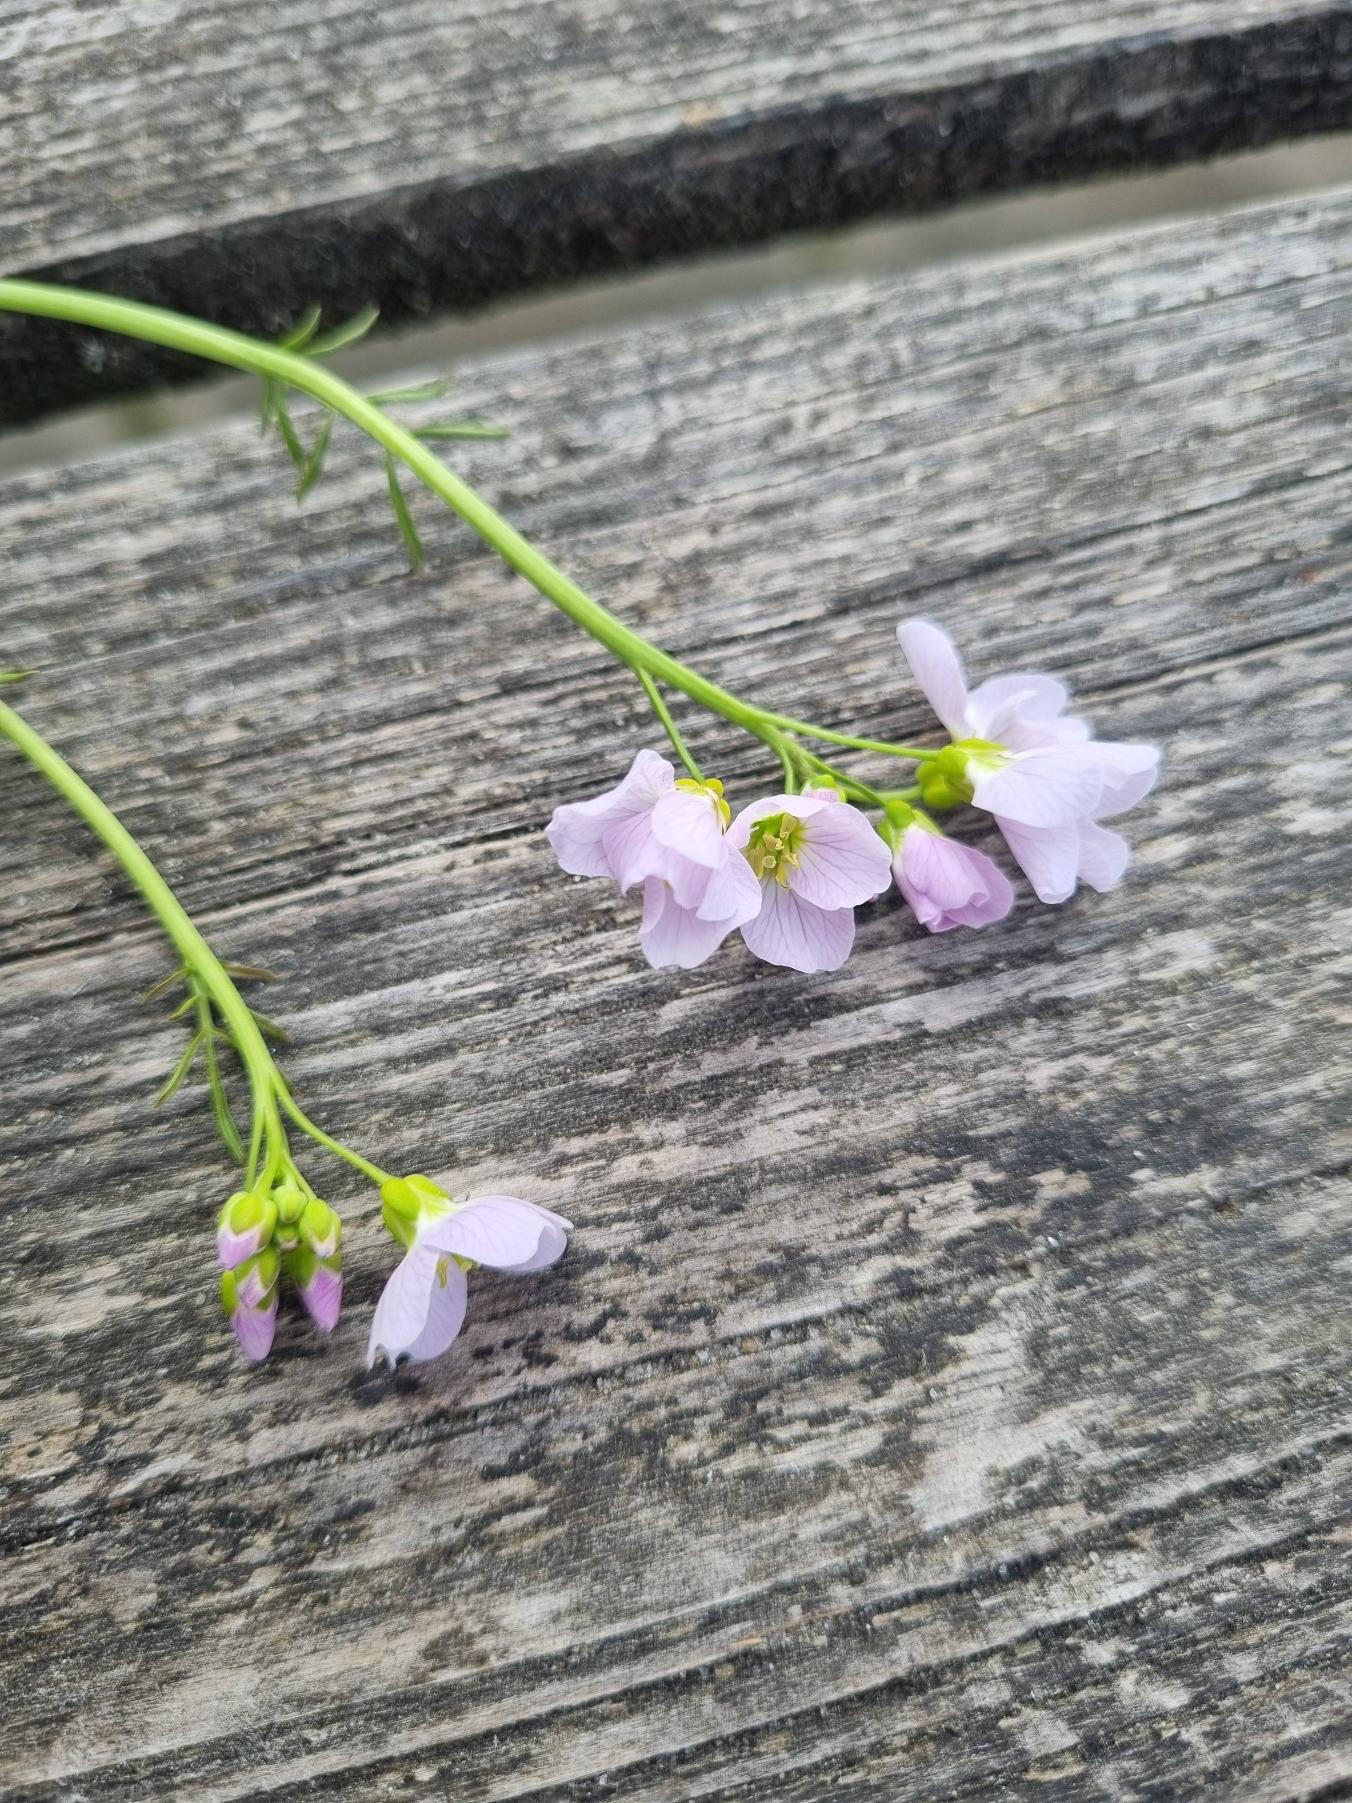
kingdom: Plantae
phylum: Tracheophyta
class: Magnoliopsida
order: Brassicales
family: Brassicaceae
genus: Cardamine
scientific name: Cardamine pratensis
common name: Engkarse
